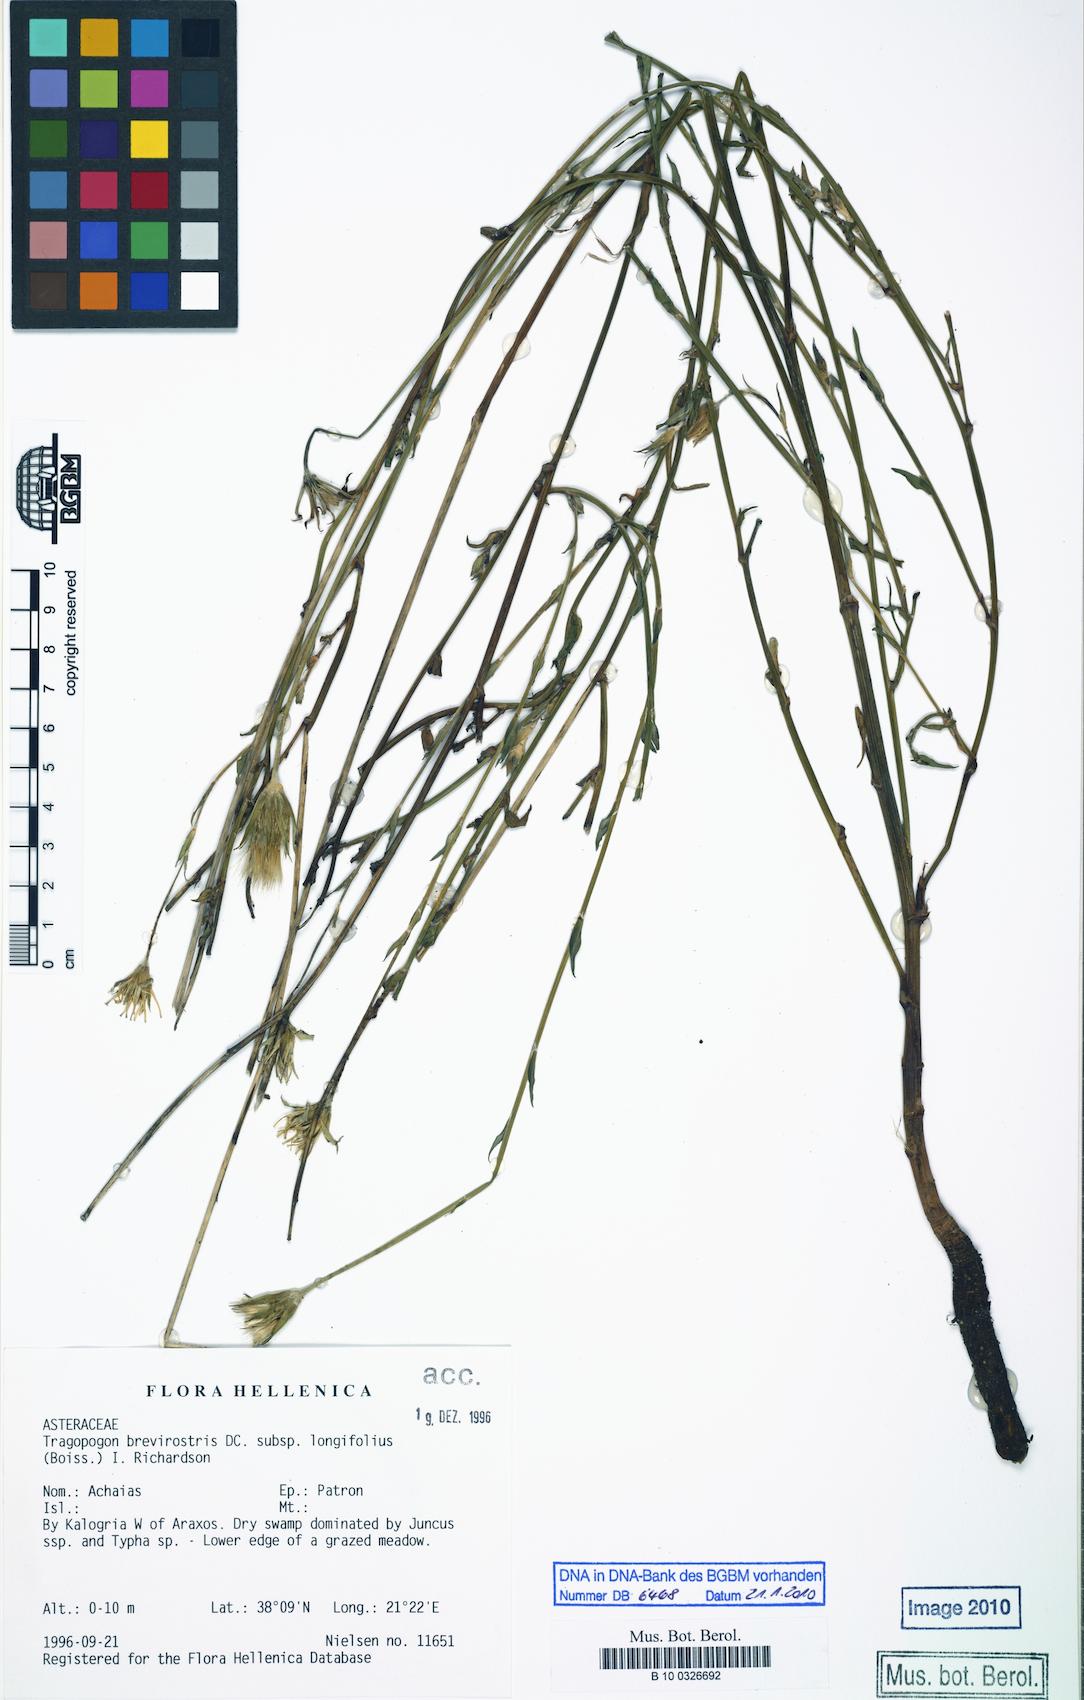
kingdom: Plantae
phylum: Tracheophyta
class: Magnoliopsida
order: Asterales
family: Asteraceae
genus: Tragopogon
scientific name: Tragopogon longifolius
